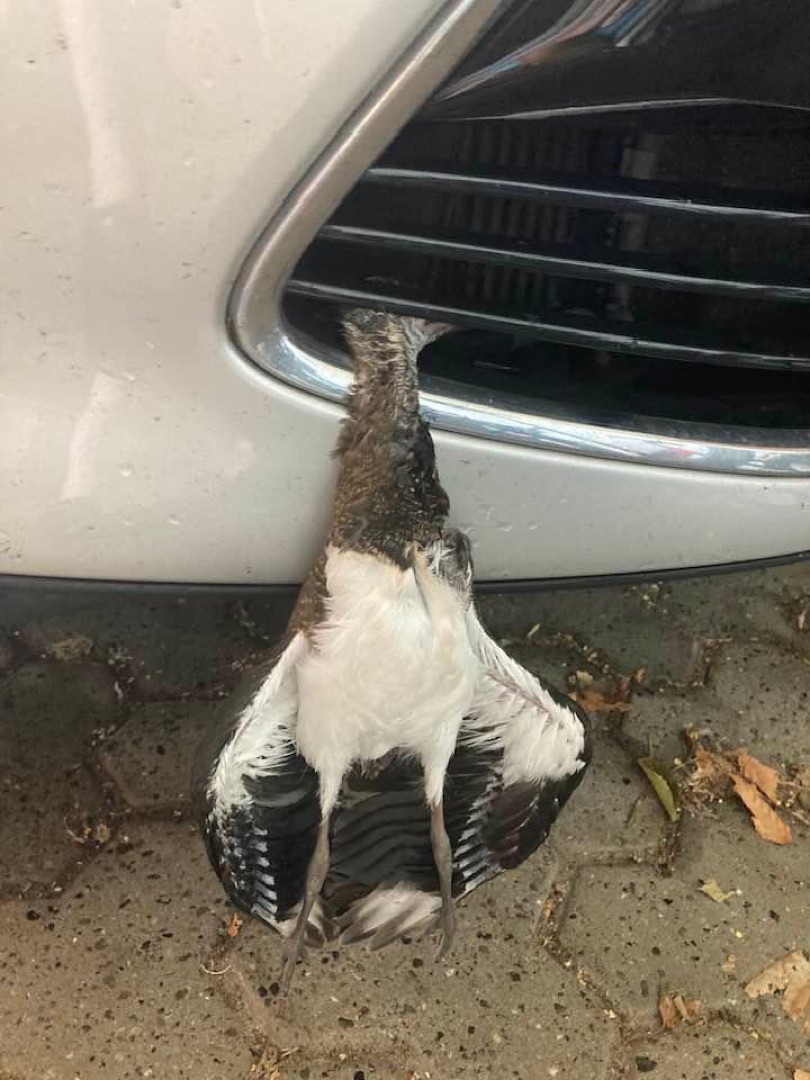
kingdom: Animalia
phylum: Chordata
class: Aves
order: Charadriiformes
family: Charadriidae
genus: Vanellus
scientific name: Vanellus vanellus
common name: Vibe
